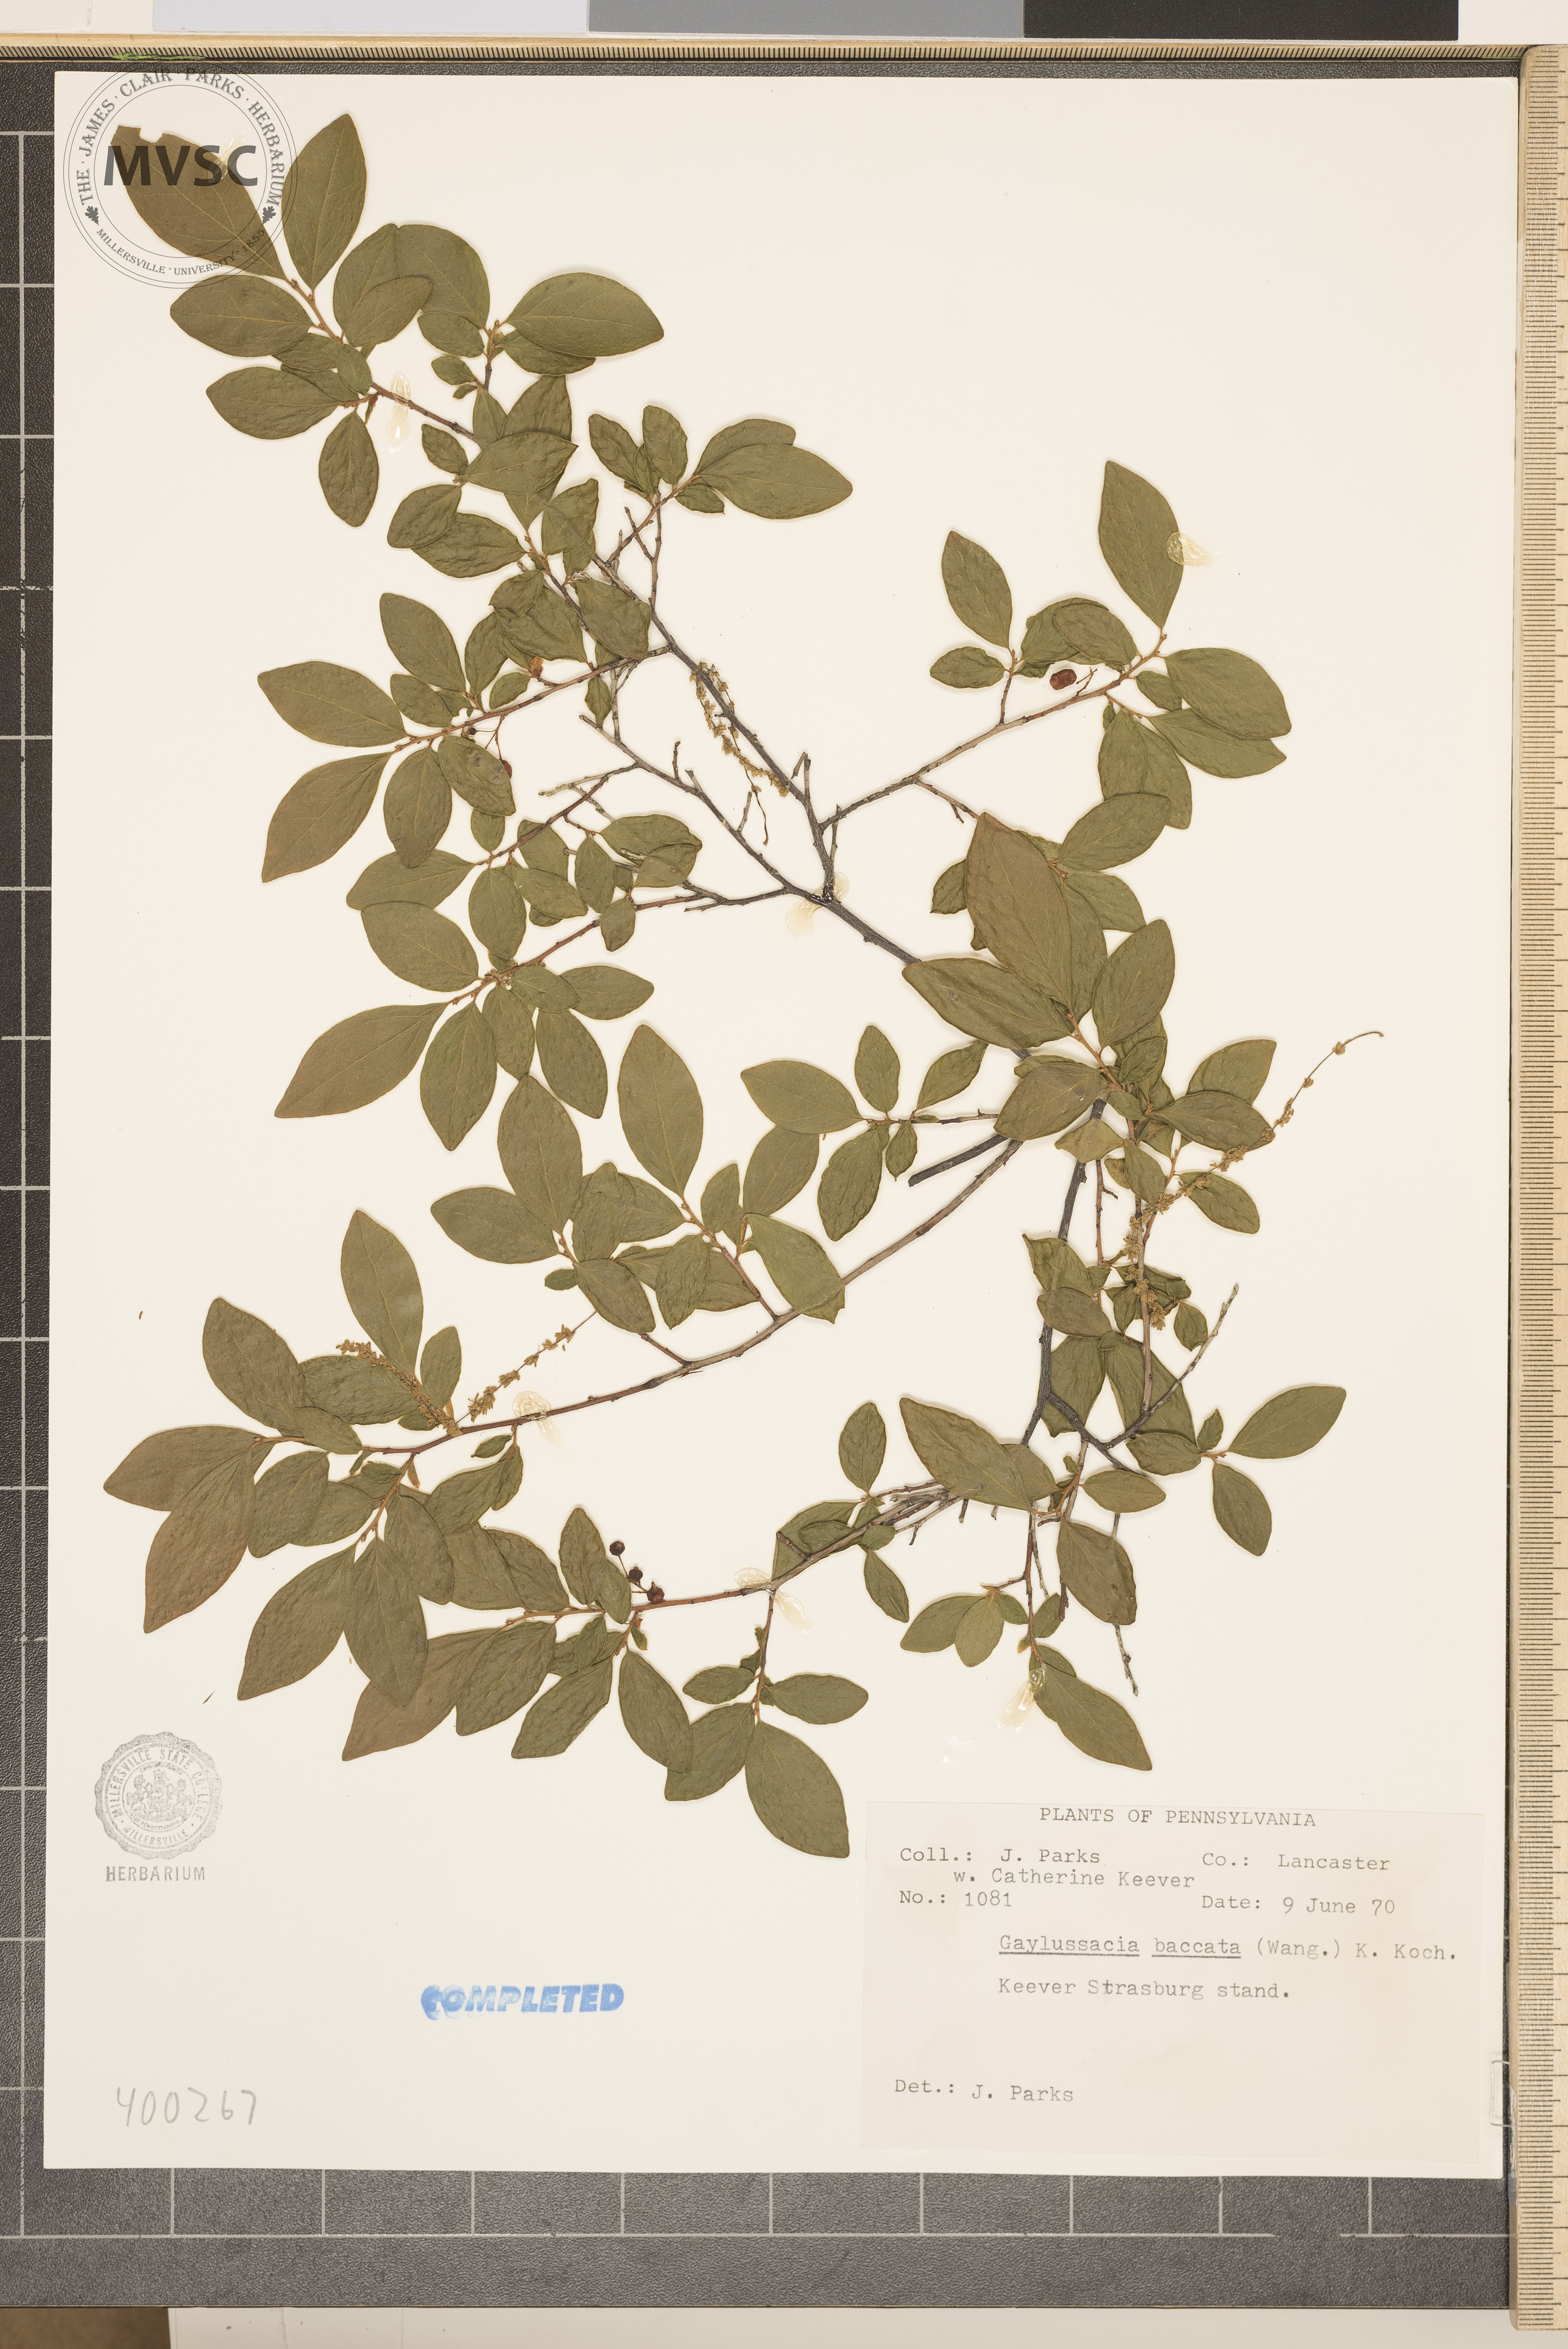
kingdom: Plantae
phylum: Tracheophyta
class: Magnoliopsida
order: Ericales
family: Ericaceae
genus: Gaylussacia
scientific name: Gaylussacia baccata
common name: Black huckleberry
